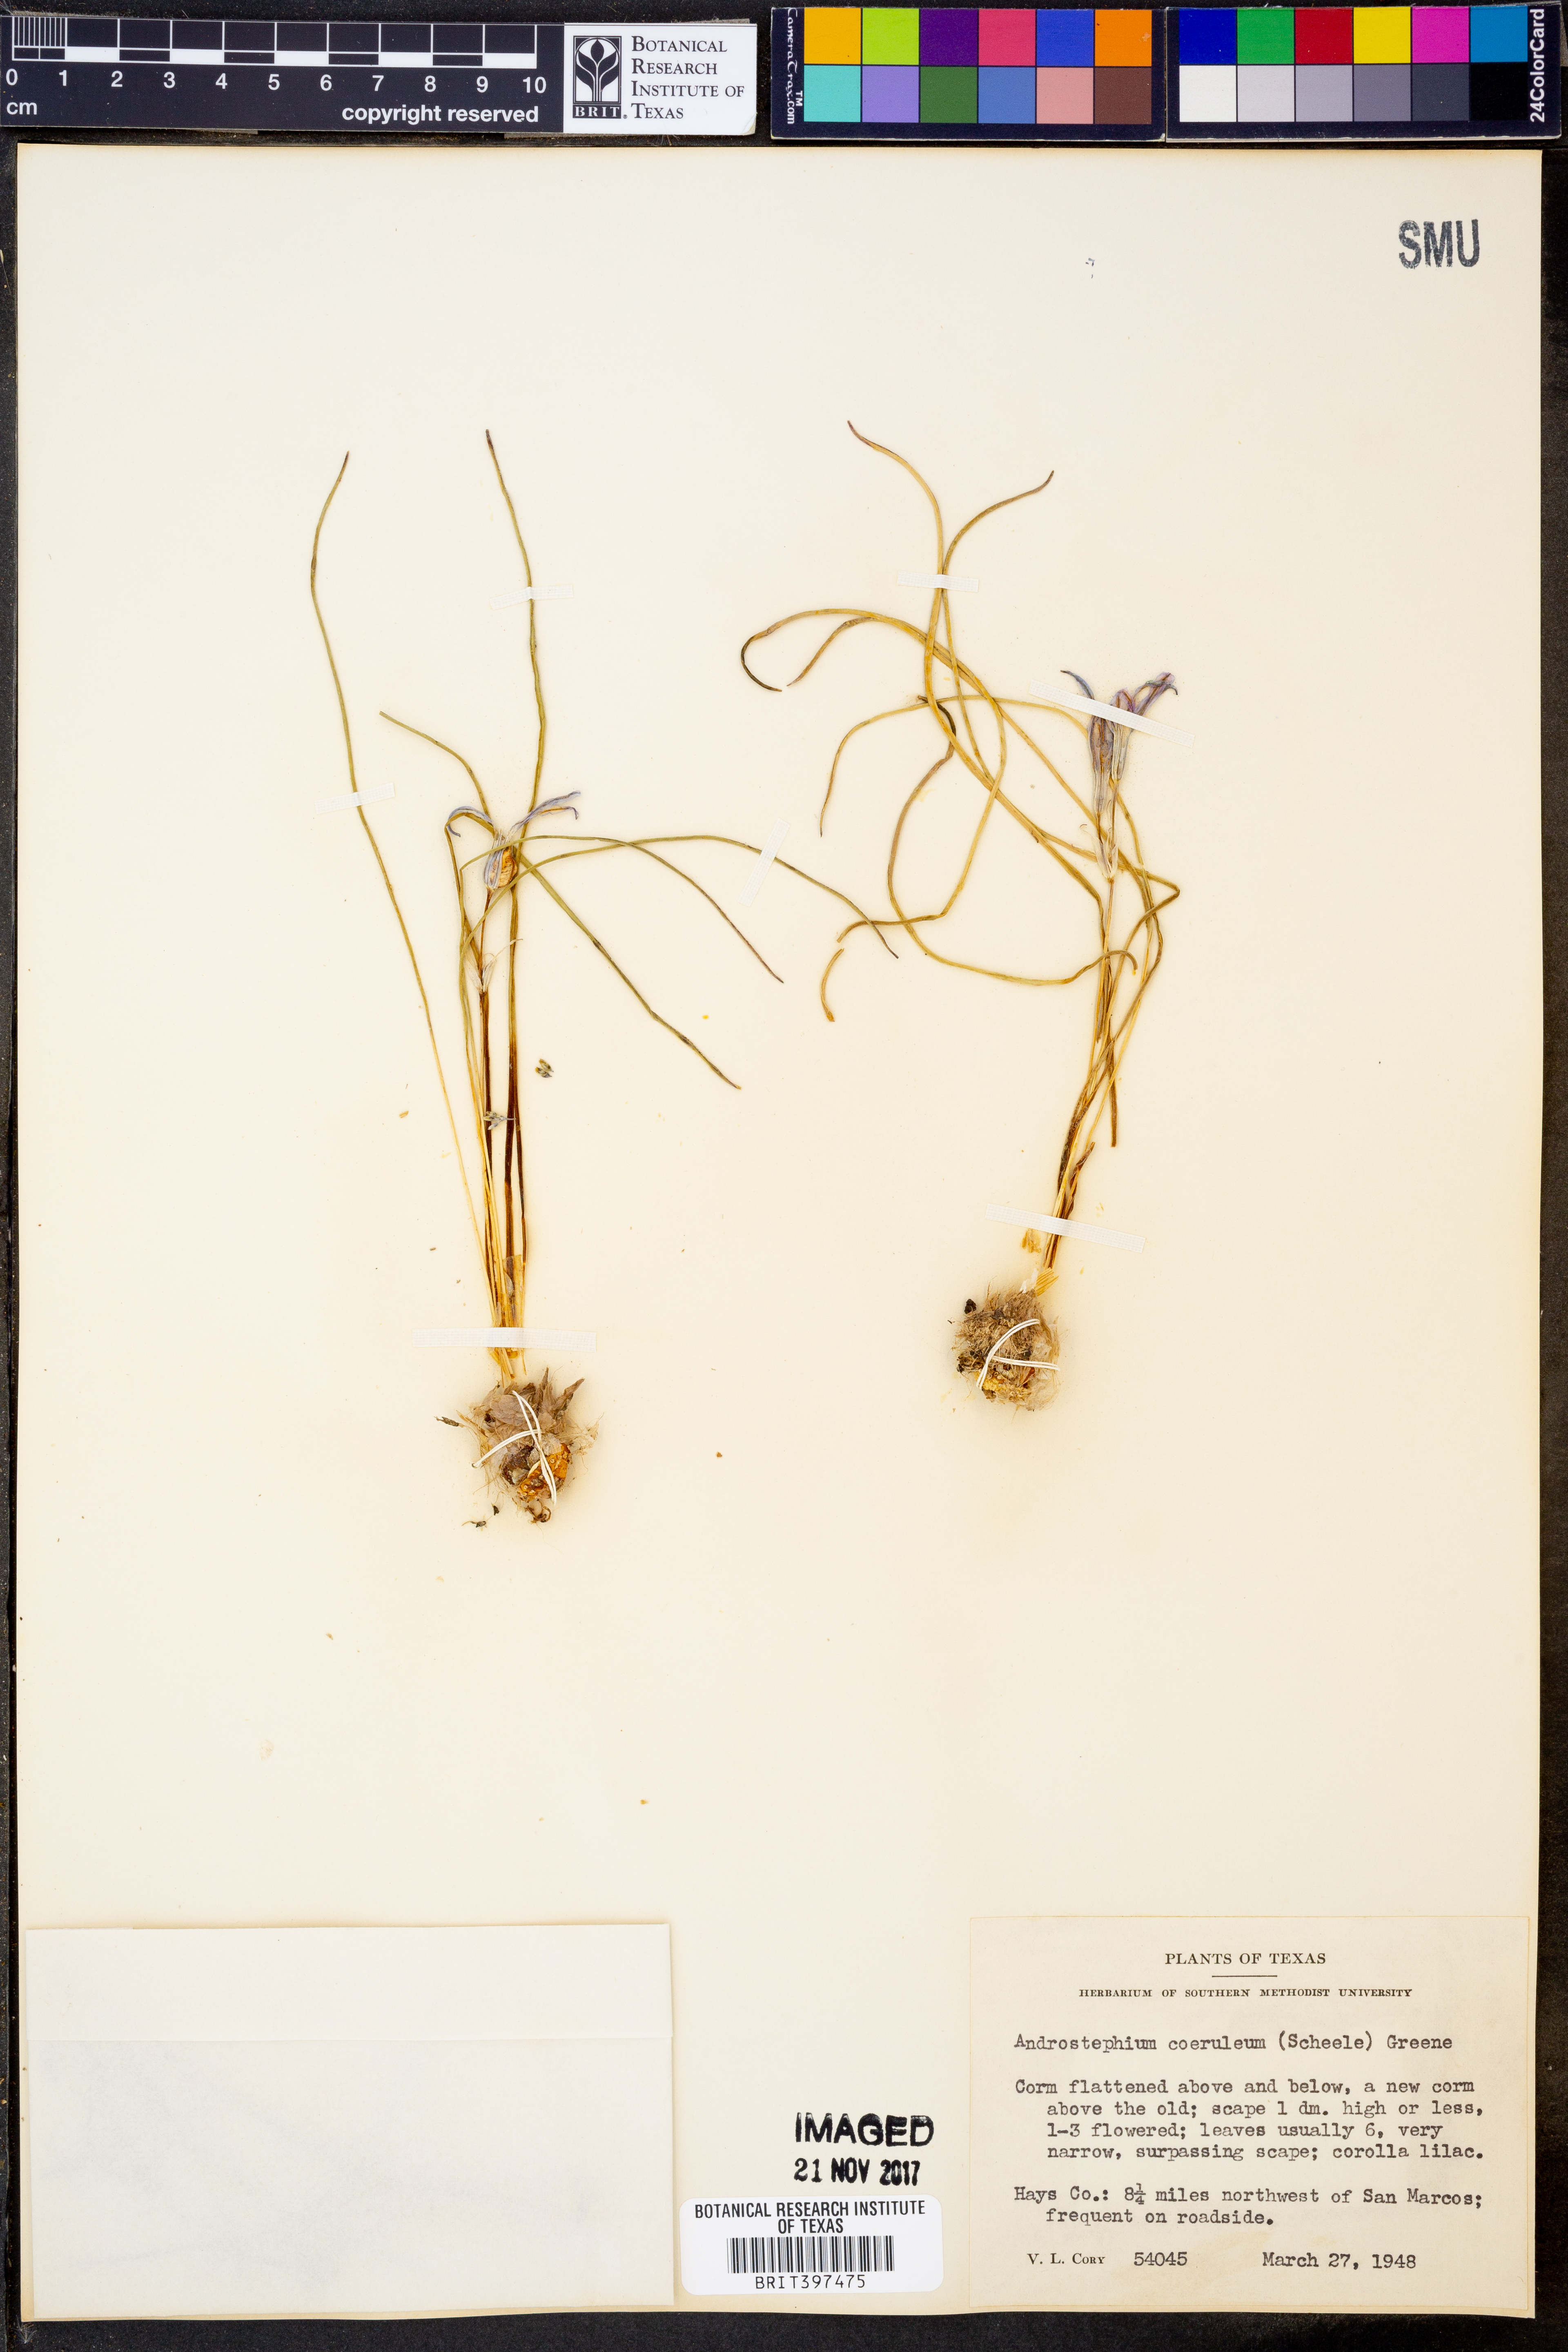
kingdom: Plantae
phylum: Tracheophyta
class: Liliopsida
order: Asparagales
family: Asparagaceae
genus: Androstephium
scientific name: Androstephium coeruleum
